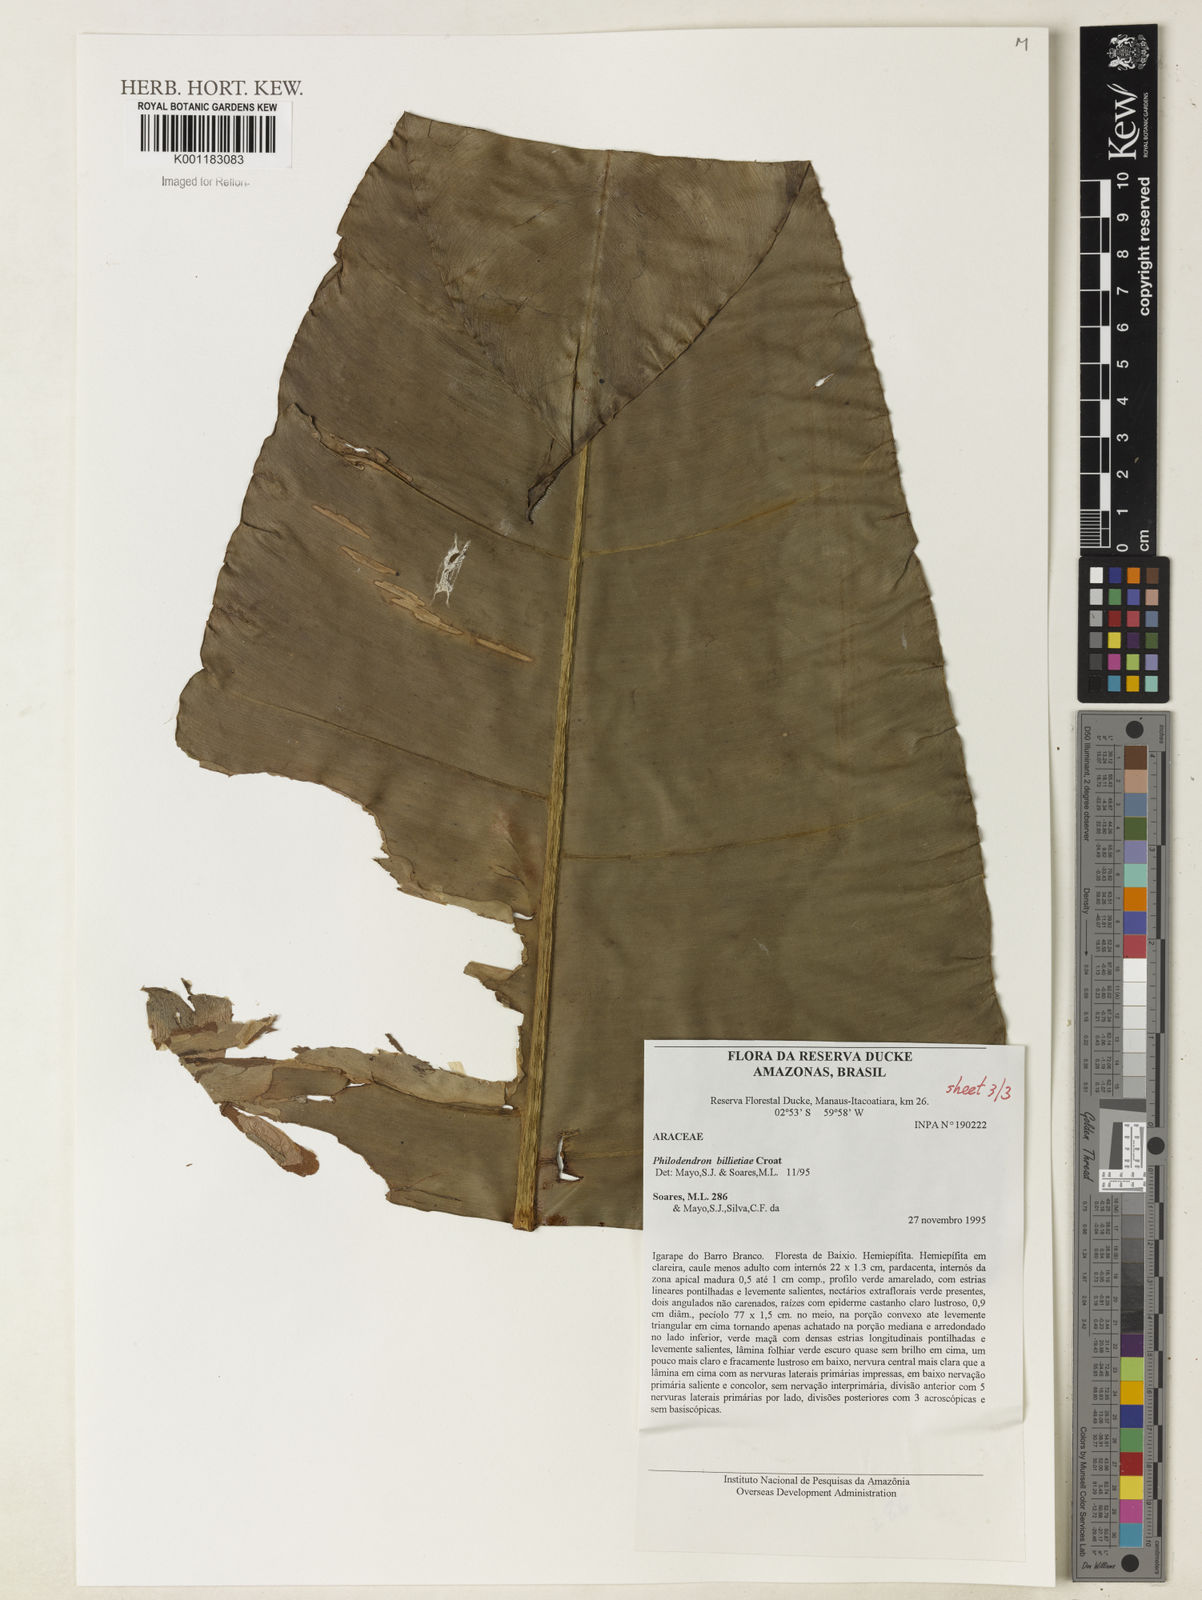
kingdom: Plantae
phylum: Tracheophyta
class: Liliopsida
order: Alismatales
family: Araceae
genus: Philodendron
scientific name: Philodendron billietiae
